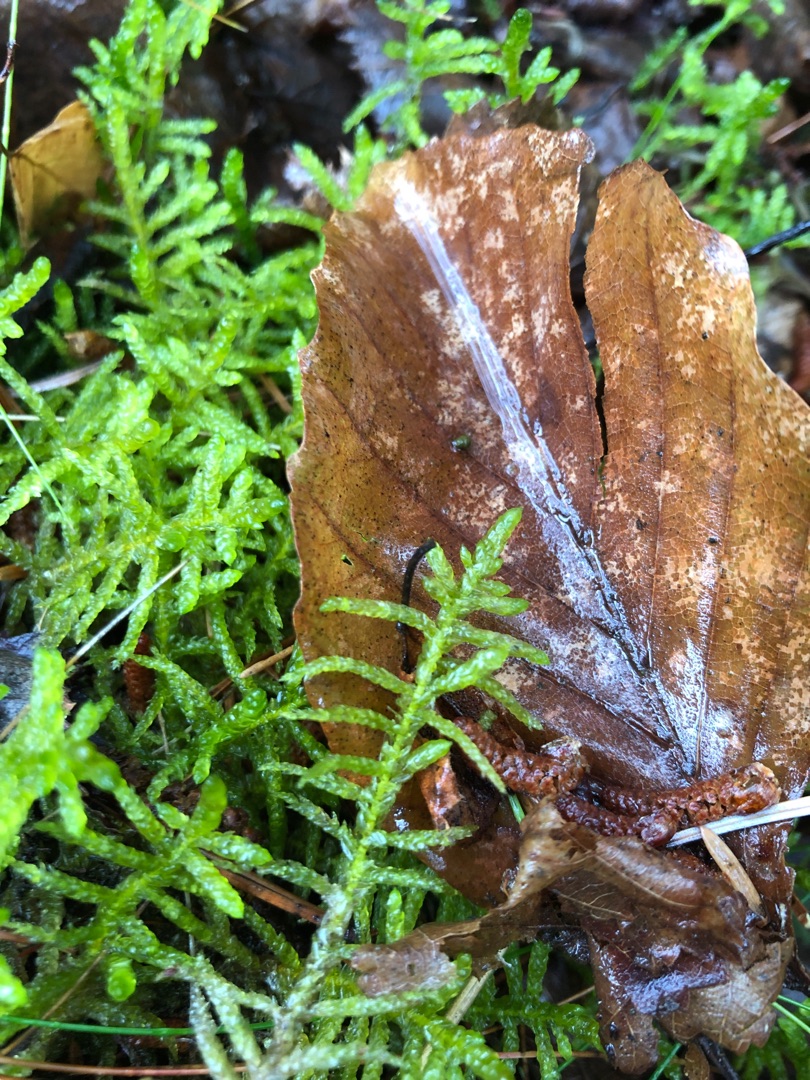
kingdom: Plantae
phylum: Bryophyta
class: Bryopsida
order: Hypnales
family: Brachytheciaceae
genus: Pseudoscleropodium
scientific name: Pseudoscleropodium purum
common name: Hulbladet fedtmos
